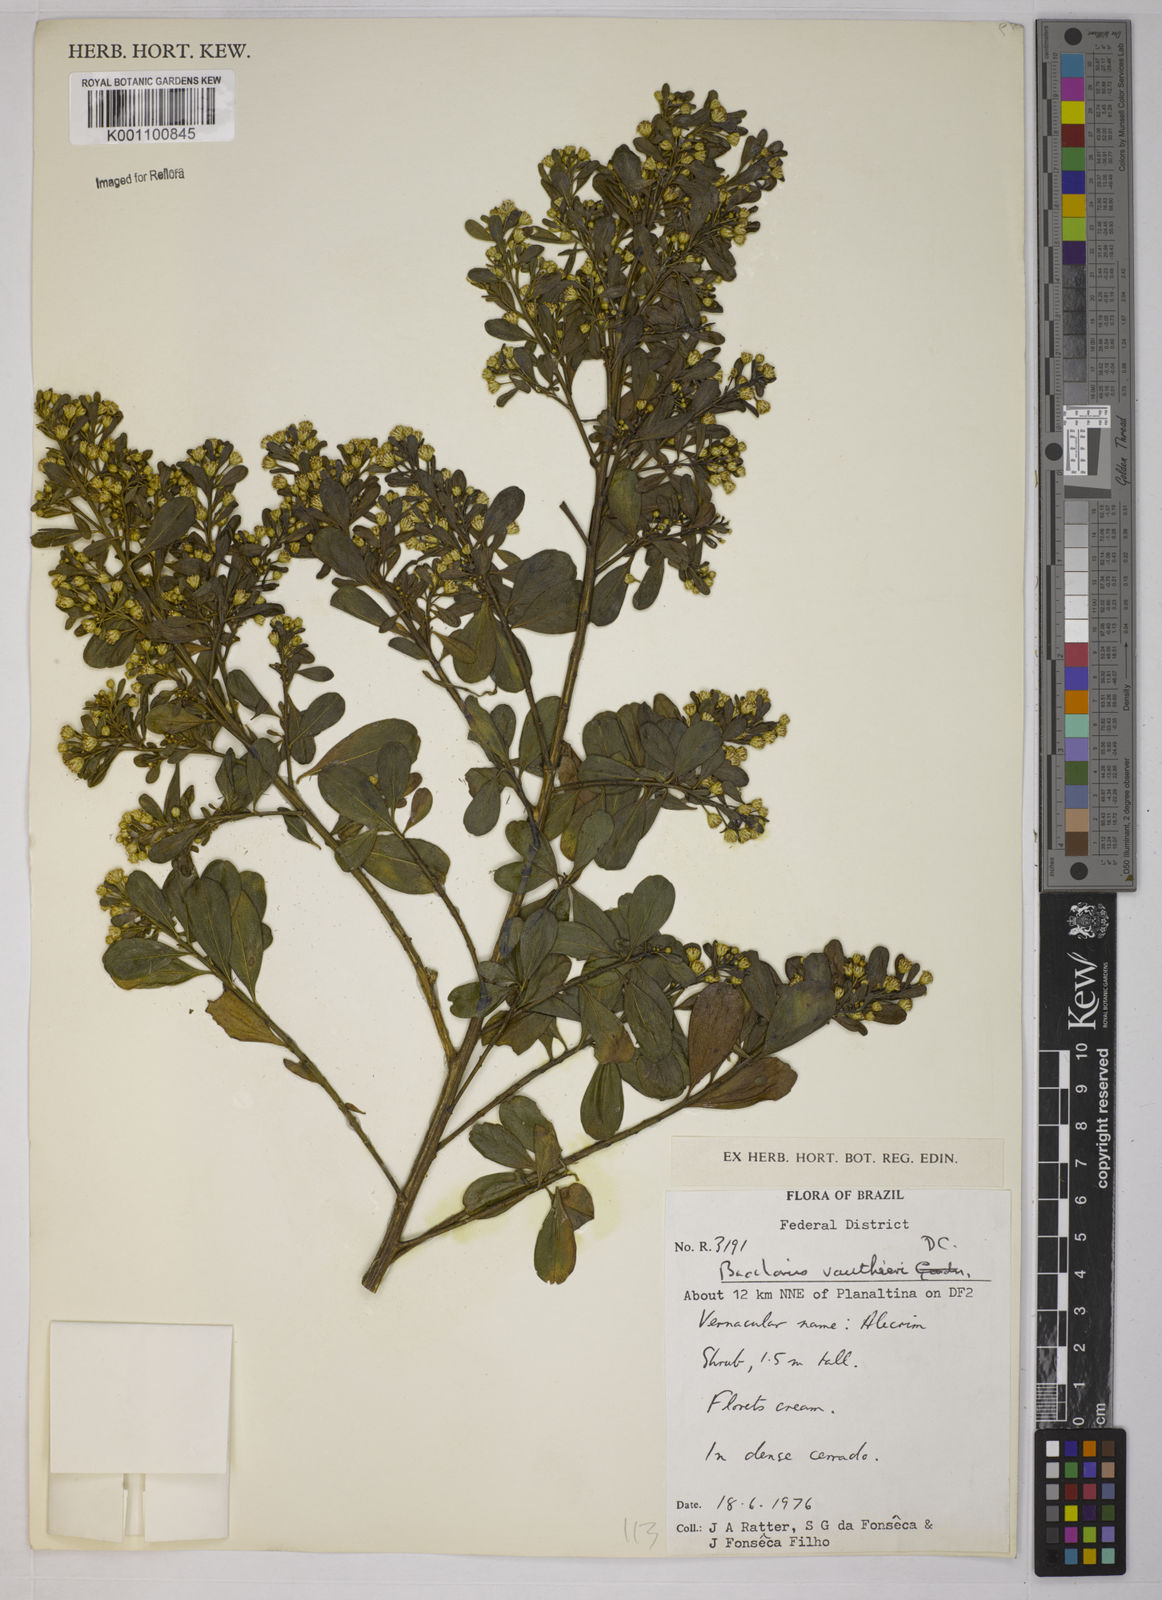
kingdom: Plantae
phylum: Tracheophyta
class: Magnoliopsida
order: Asterales
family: Asteraceae
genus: Baccharis
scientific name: Baccharis reticularia
